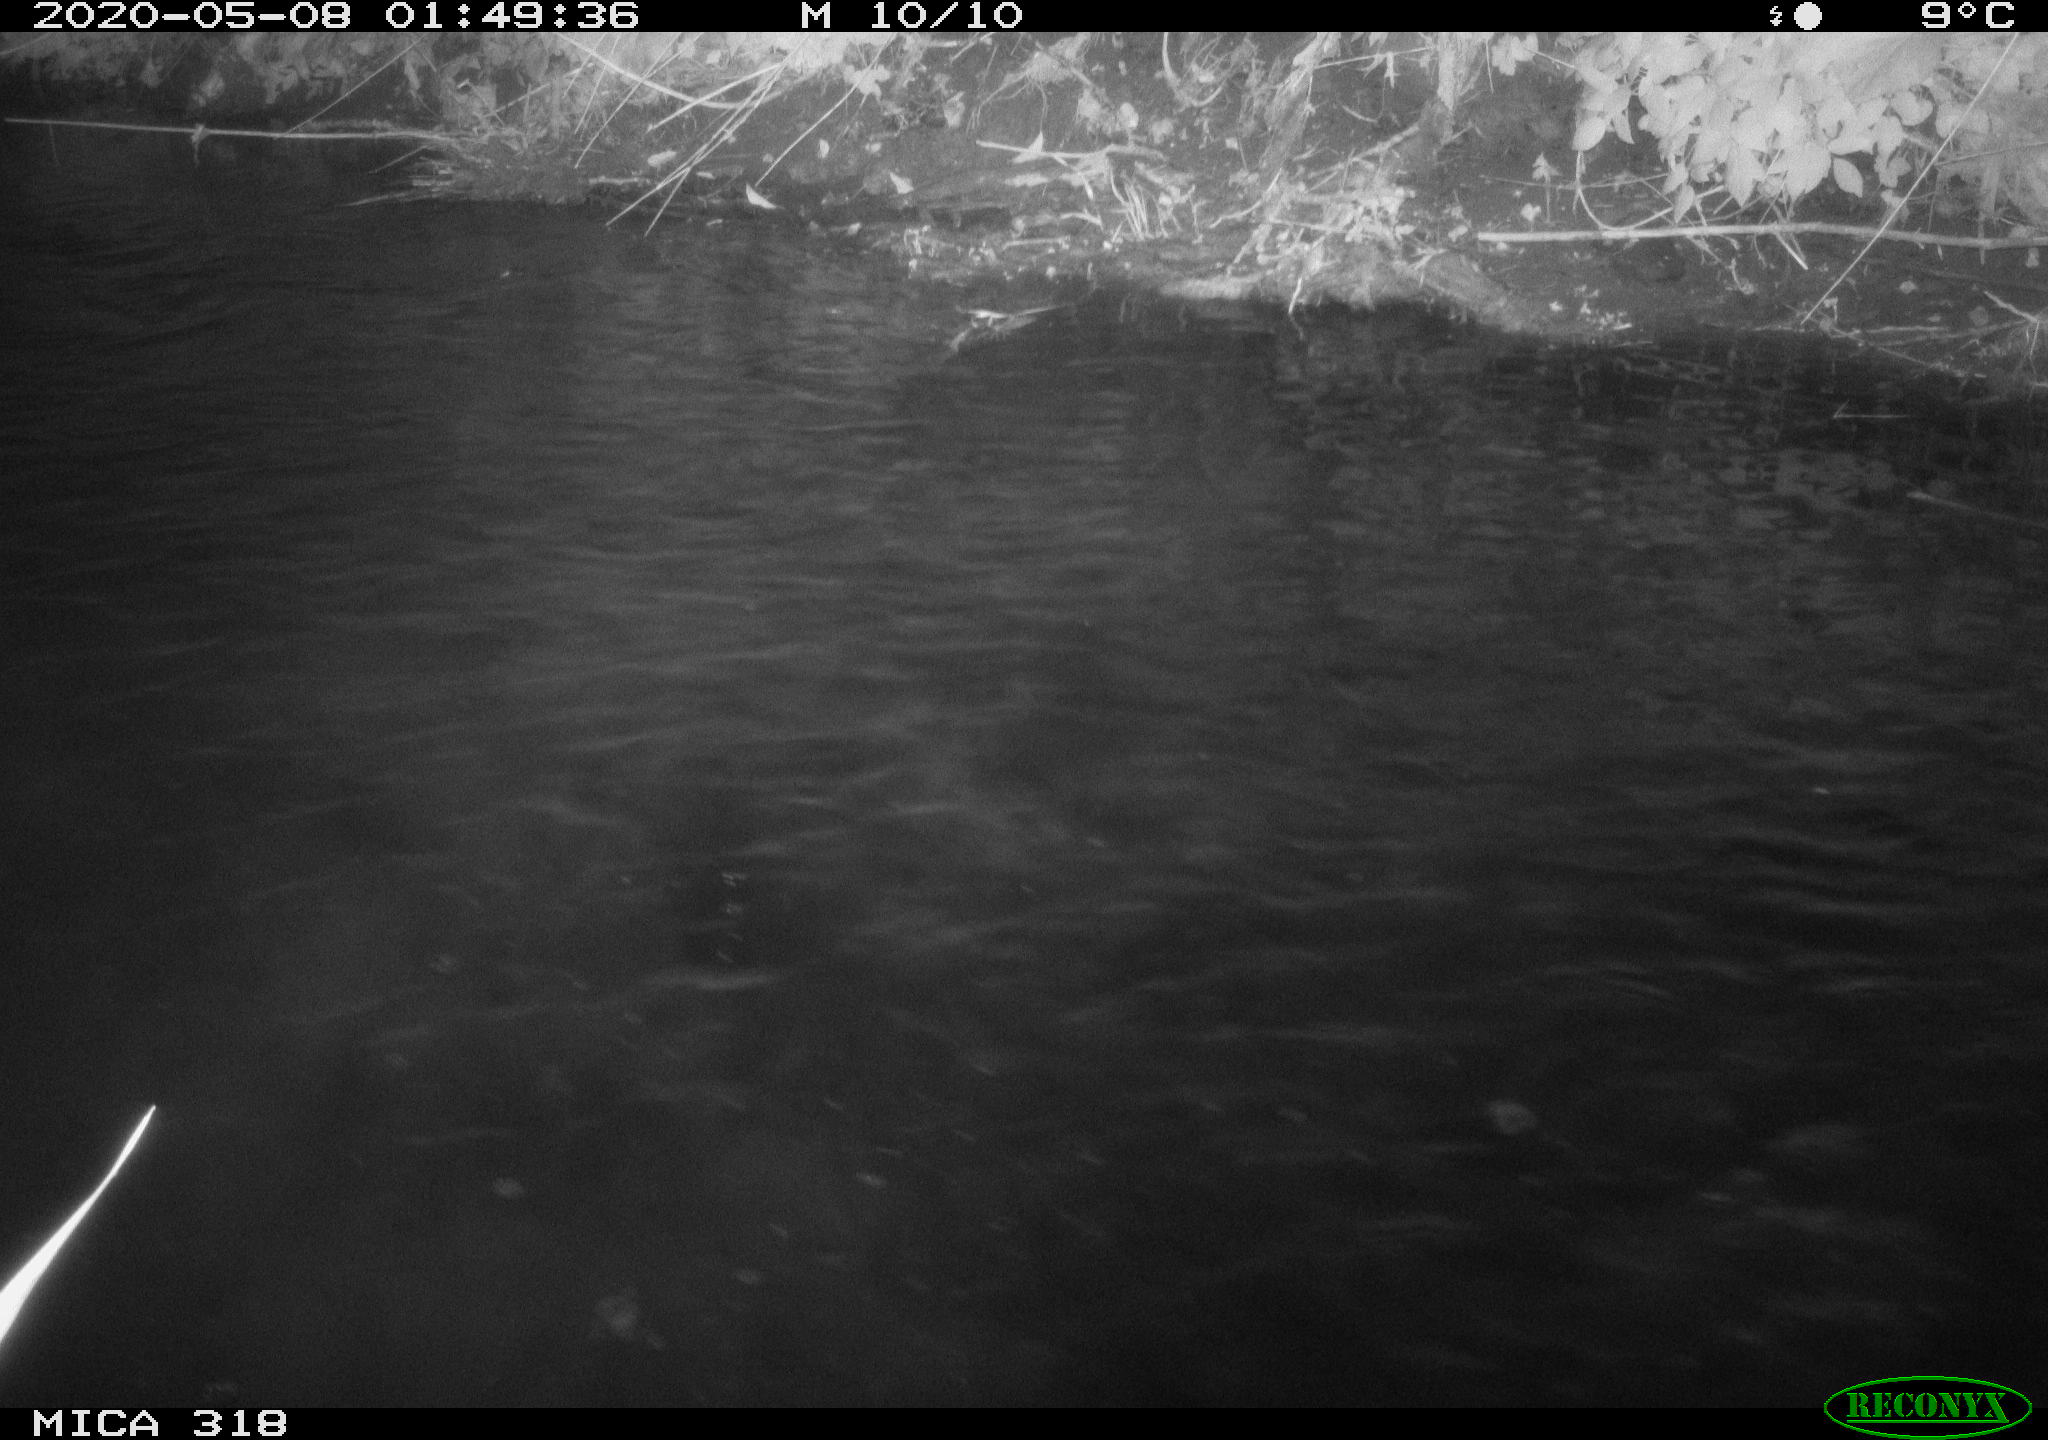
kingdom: Animalia
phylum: Chordata
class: Aves
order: Anseriformes
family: Anatidae
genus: Anas
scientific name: Anas platyrhynchos
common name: Mallard
